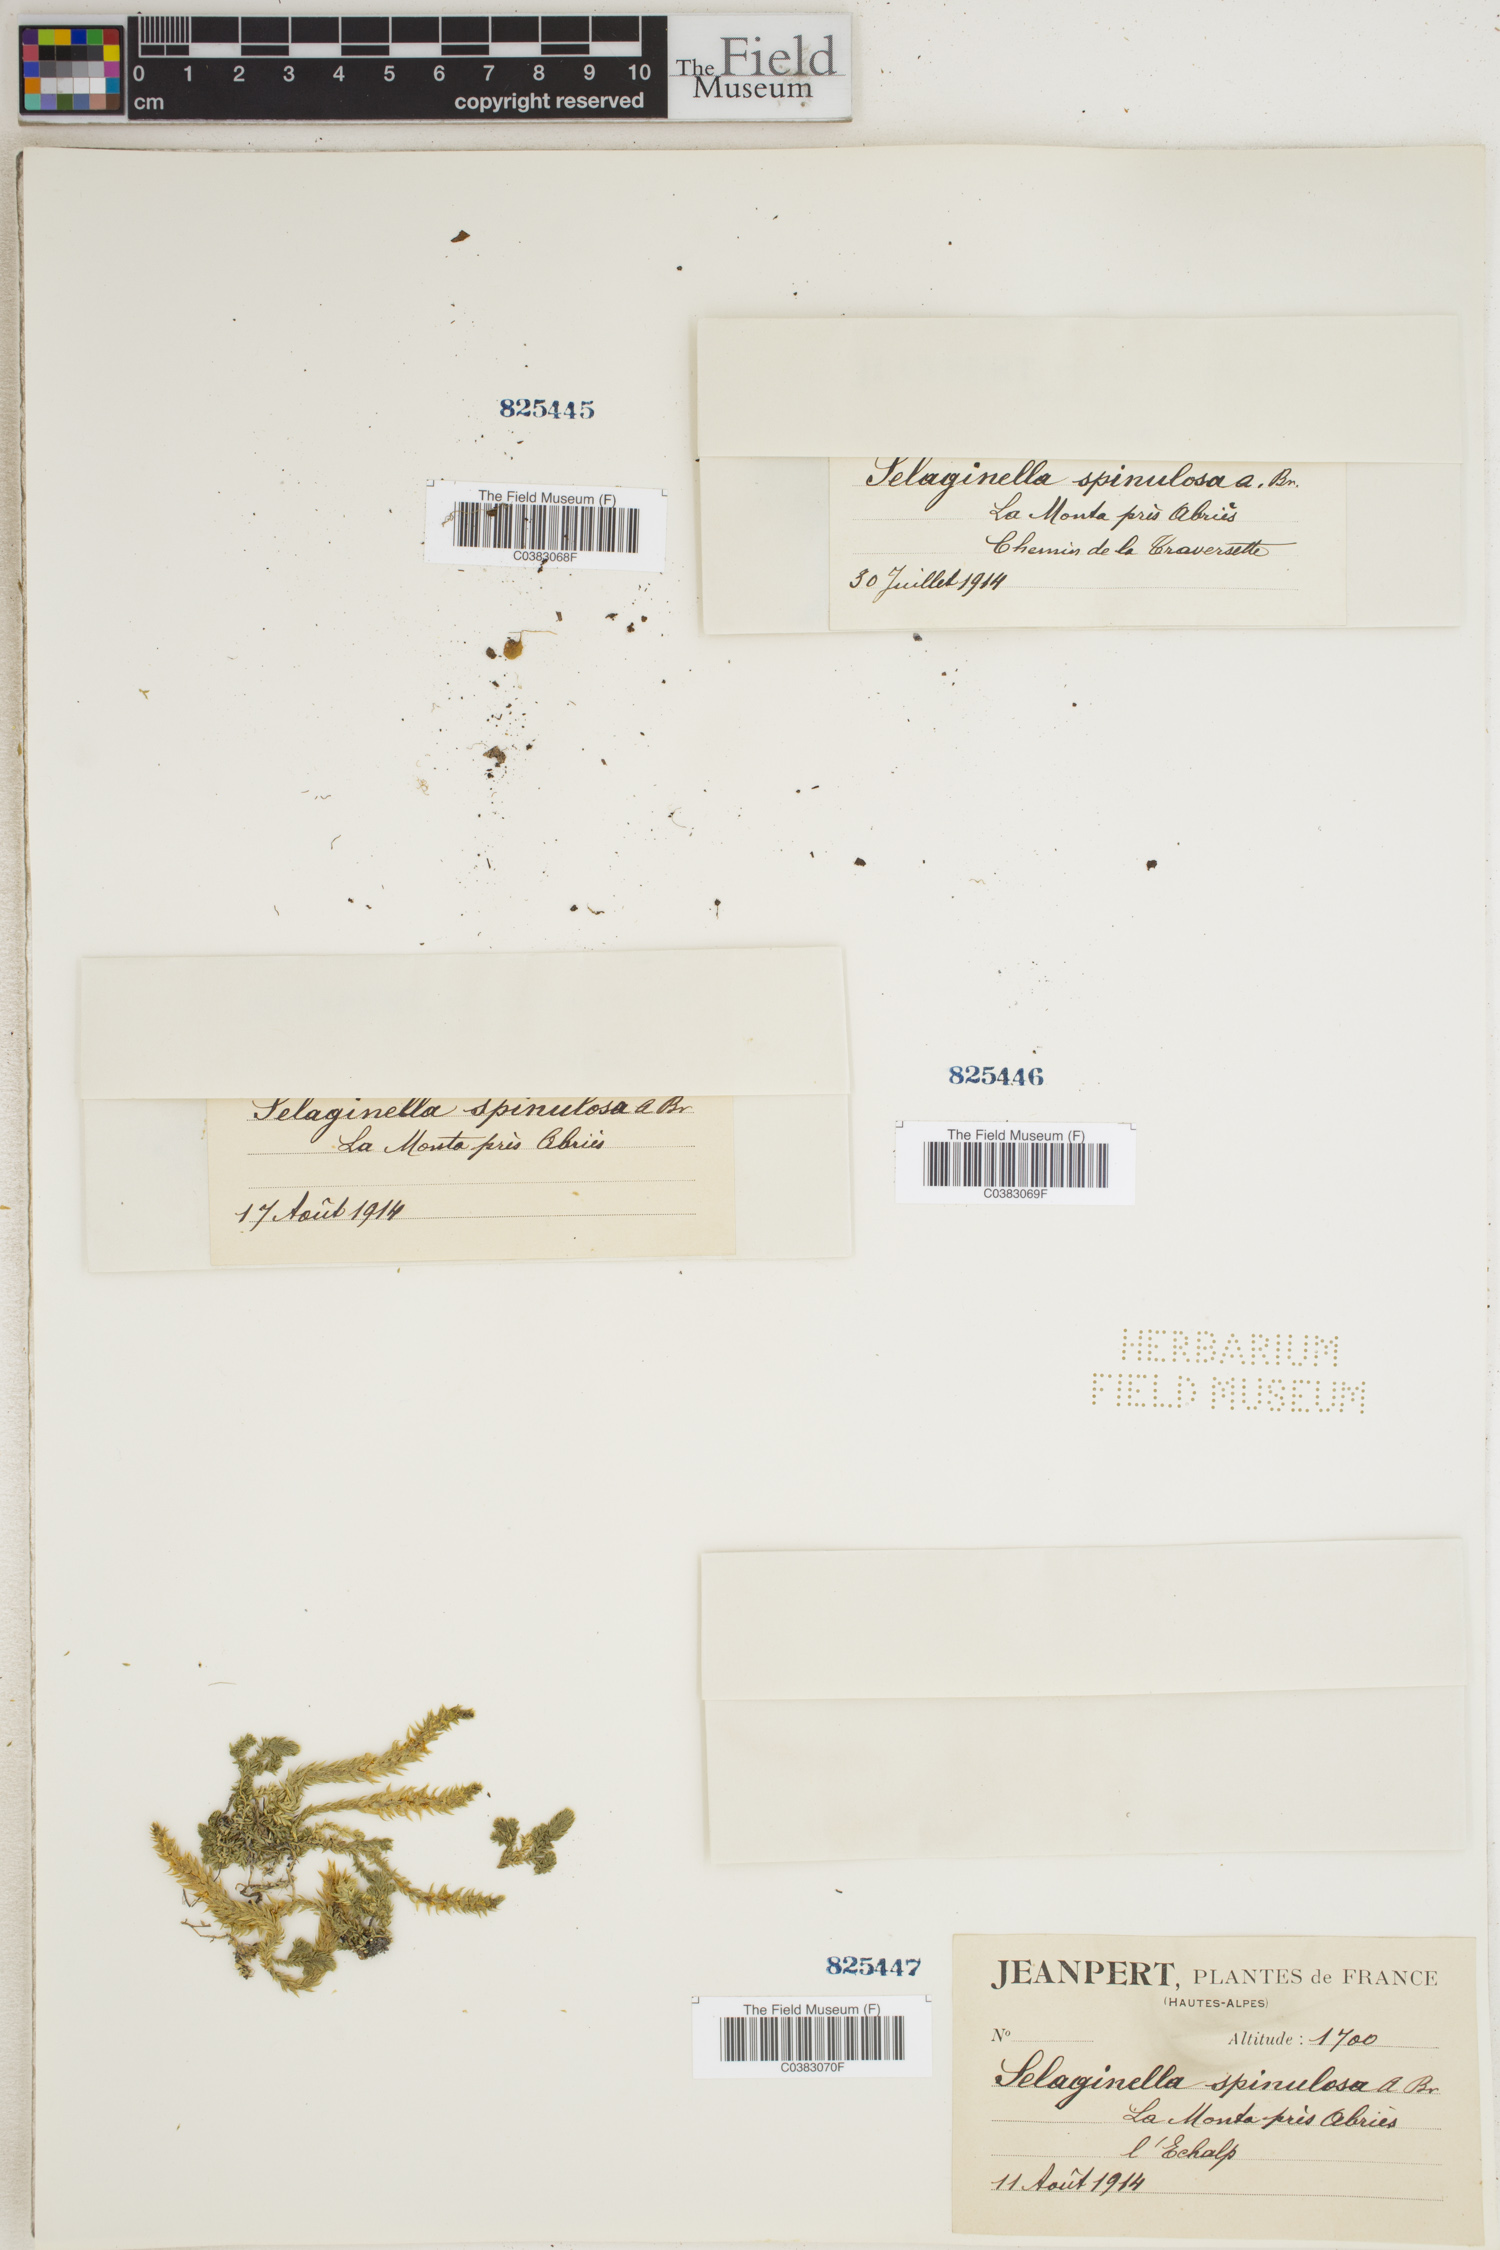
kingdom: Plantae
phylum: Tracheophyta
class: Lycopodiopsida
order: Selaginellales
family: Selaginellaceae
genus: Selaginella
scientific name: Selaginella selaginoides
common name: Prickly mountain-moss
